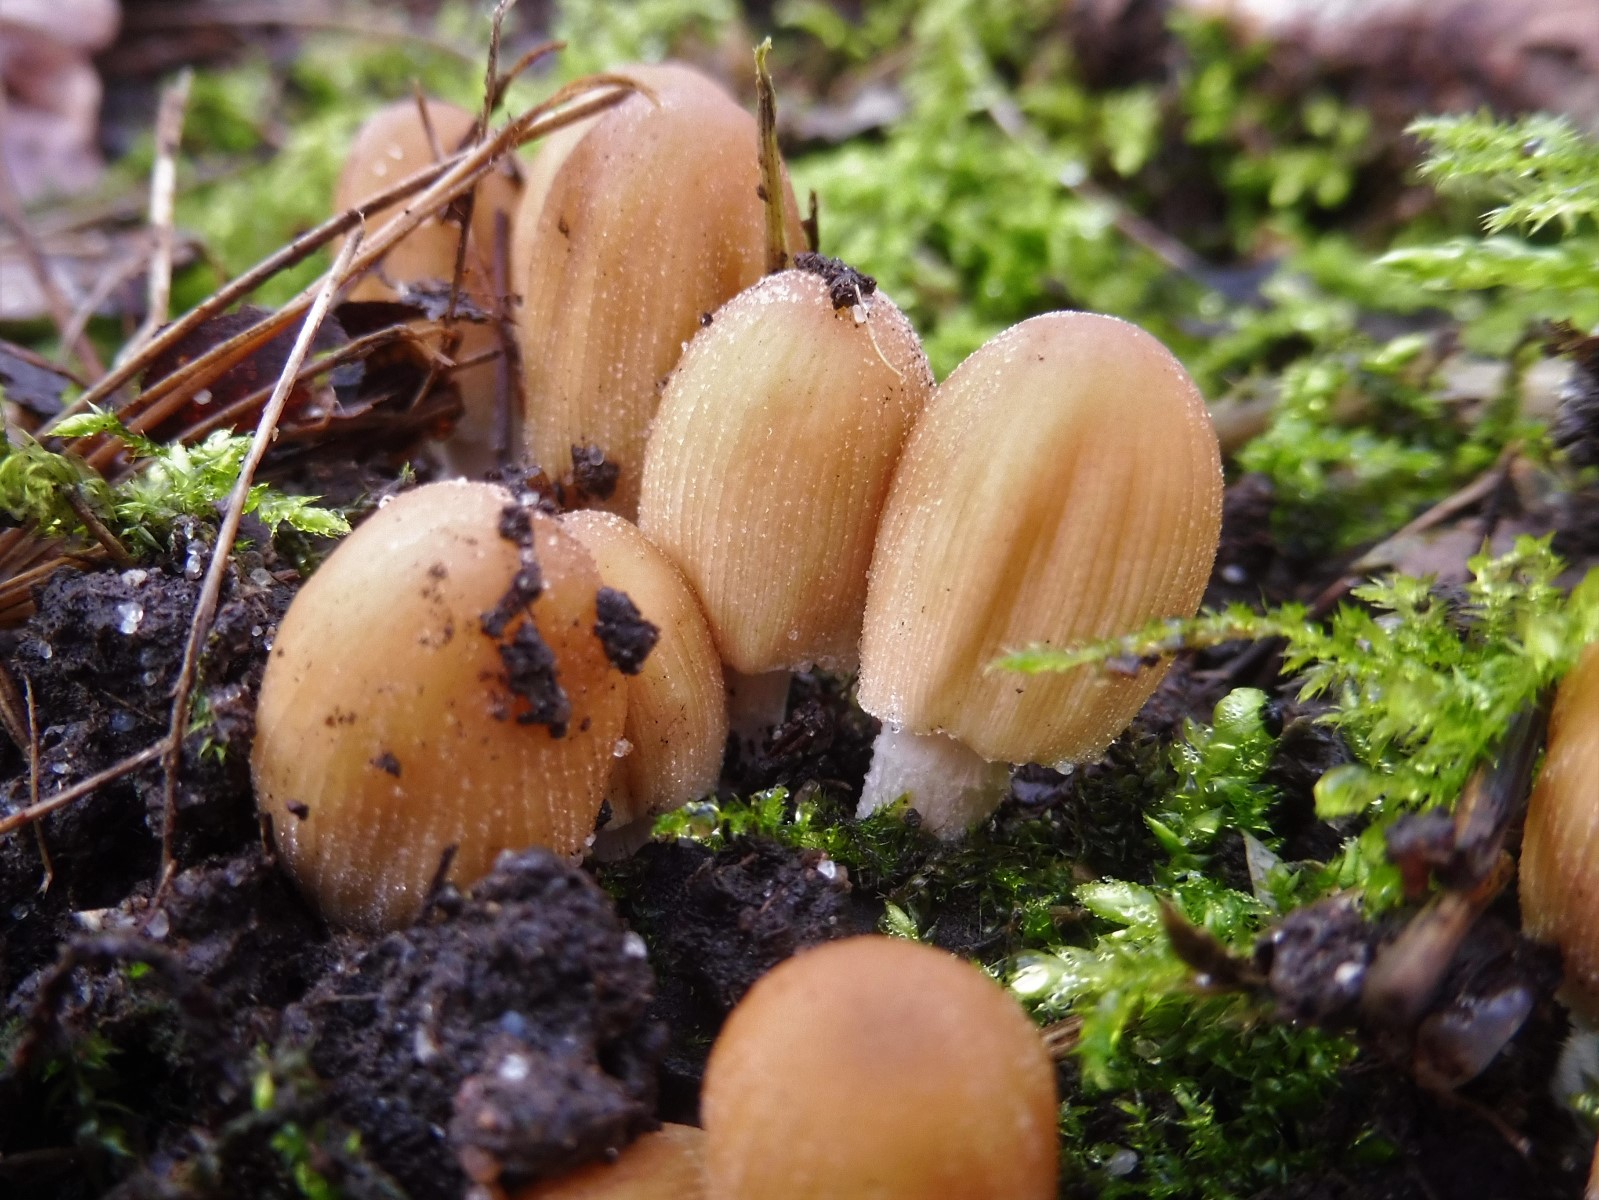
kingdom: Fungi
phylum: Basidiomycota
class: Agaricomycetes
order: Agaricales
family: Psathyrellaceae
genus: Coprinellus
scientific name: Coprinellus micaceus
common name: glimmer-blækhat
